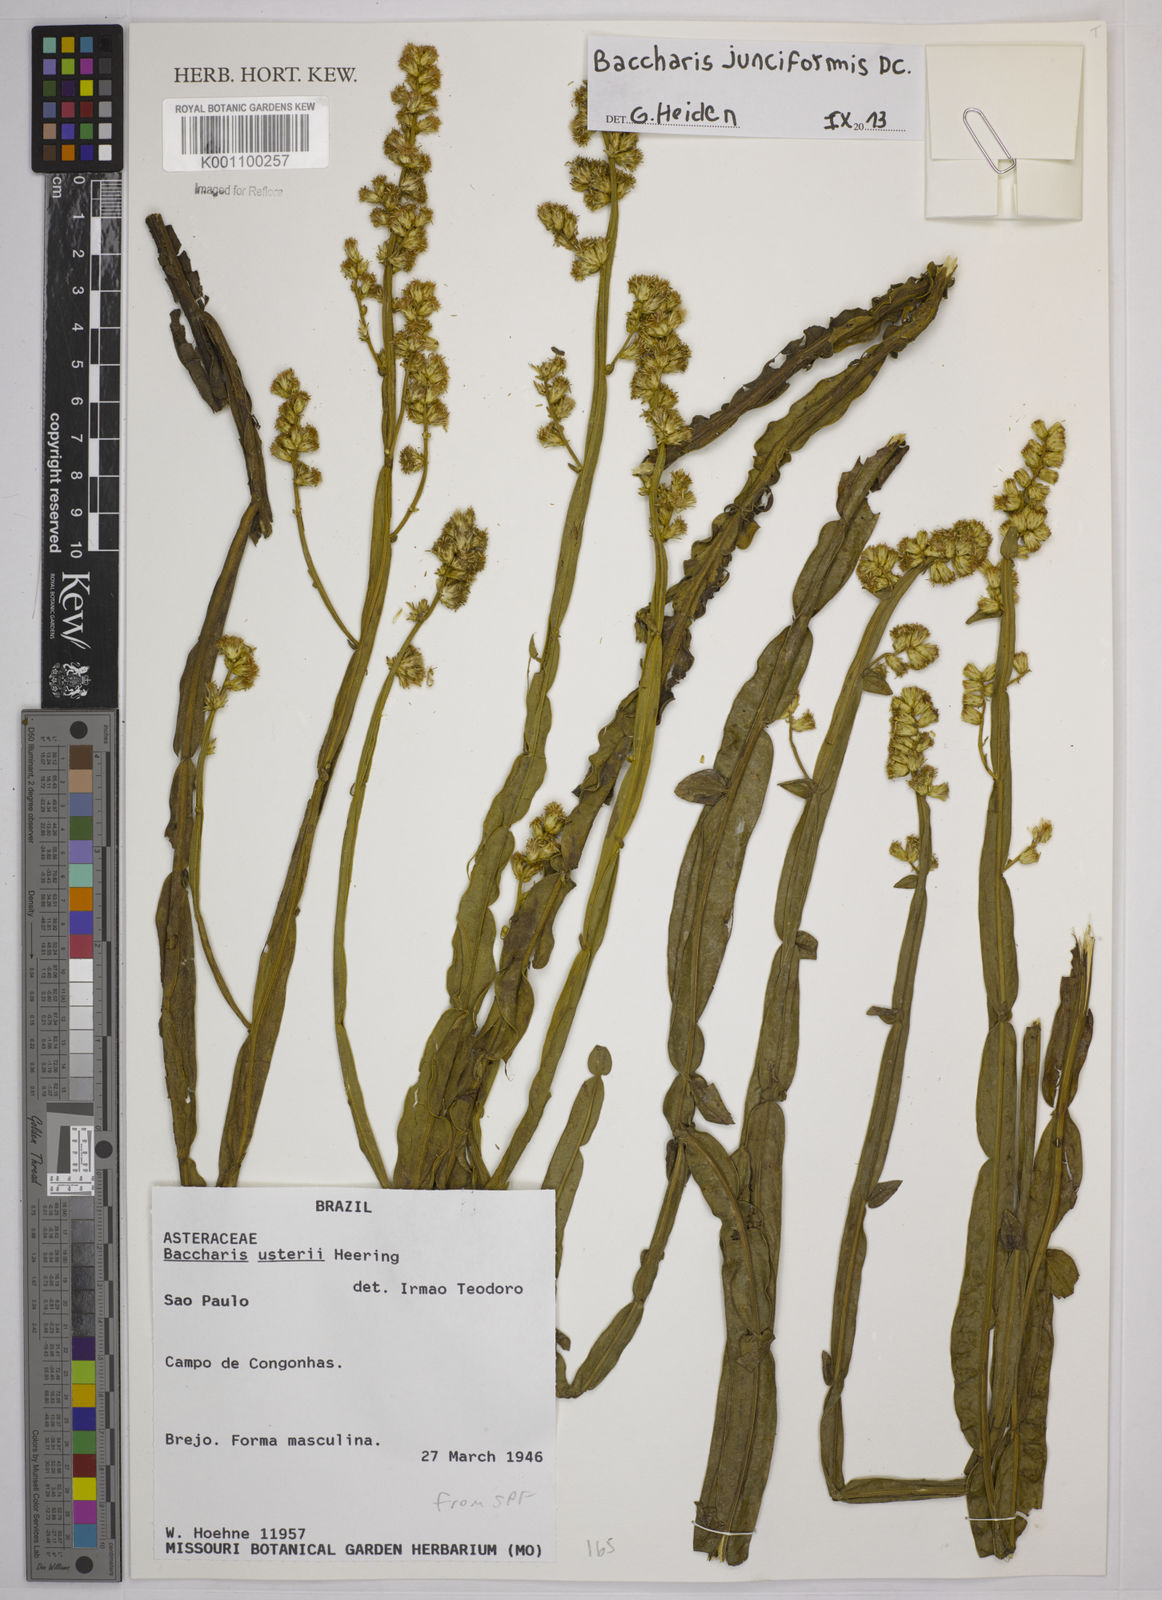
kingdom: Plantae
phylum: Tracheophyta
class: Magnoliopsida
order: Asterales
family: Asteraceae
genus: Baccharis
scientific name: Baccharis junciformis
